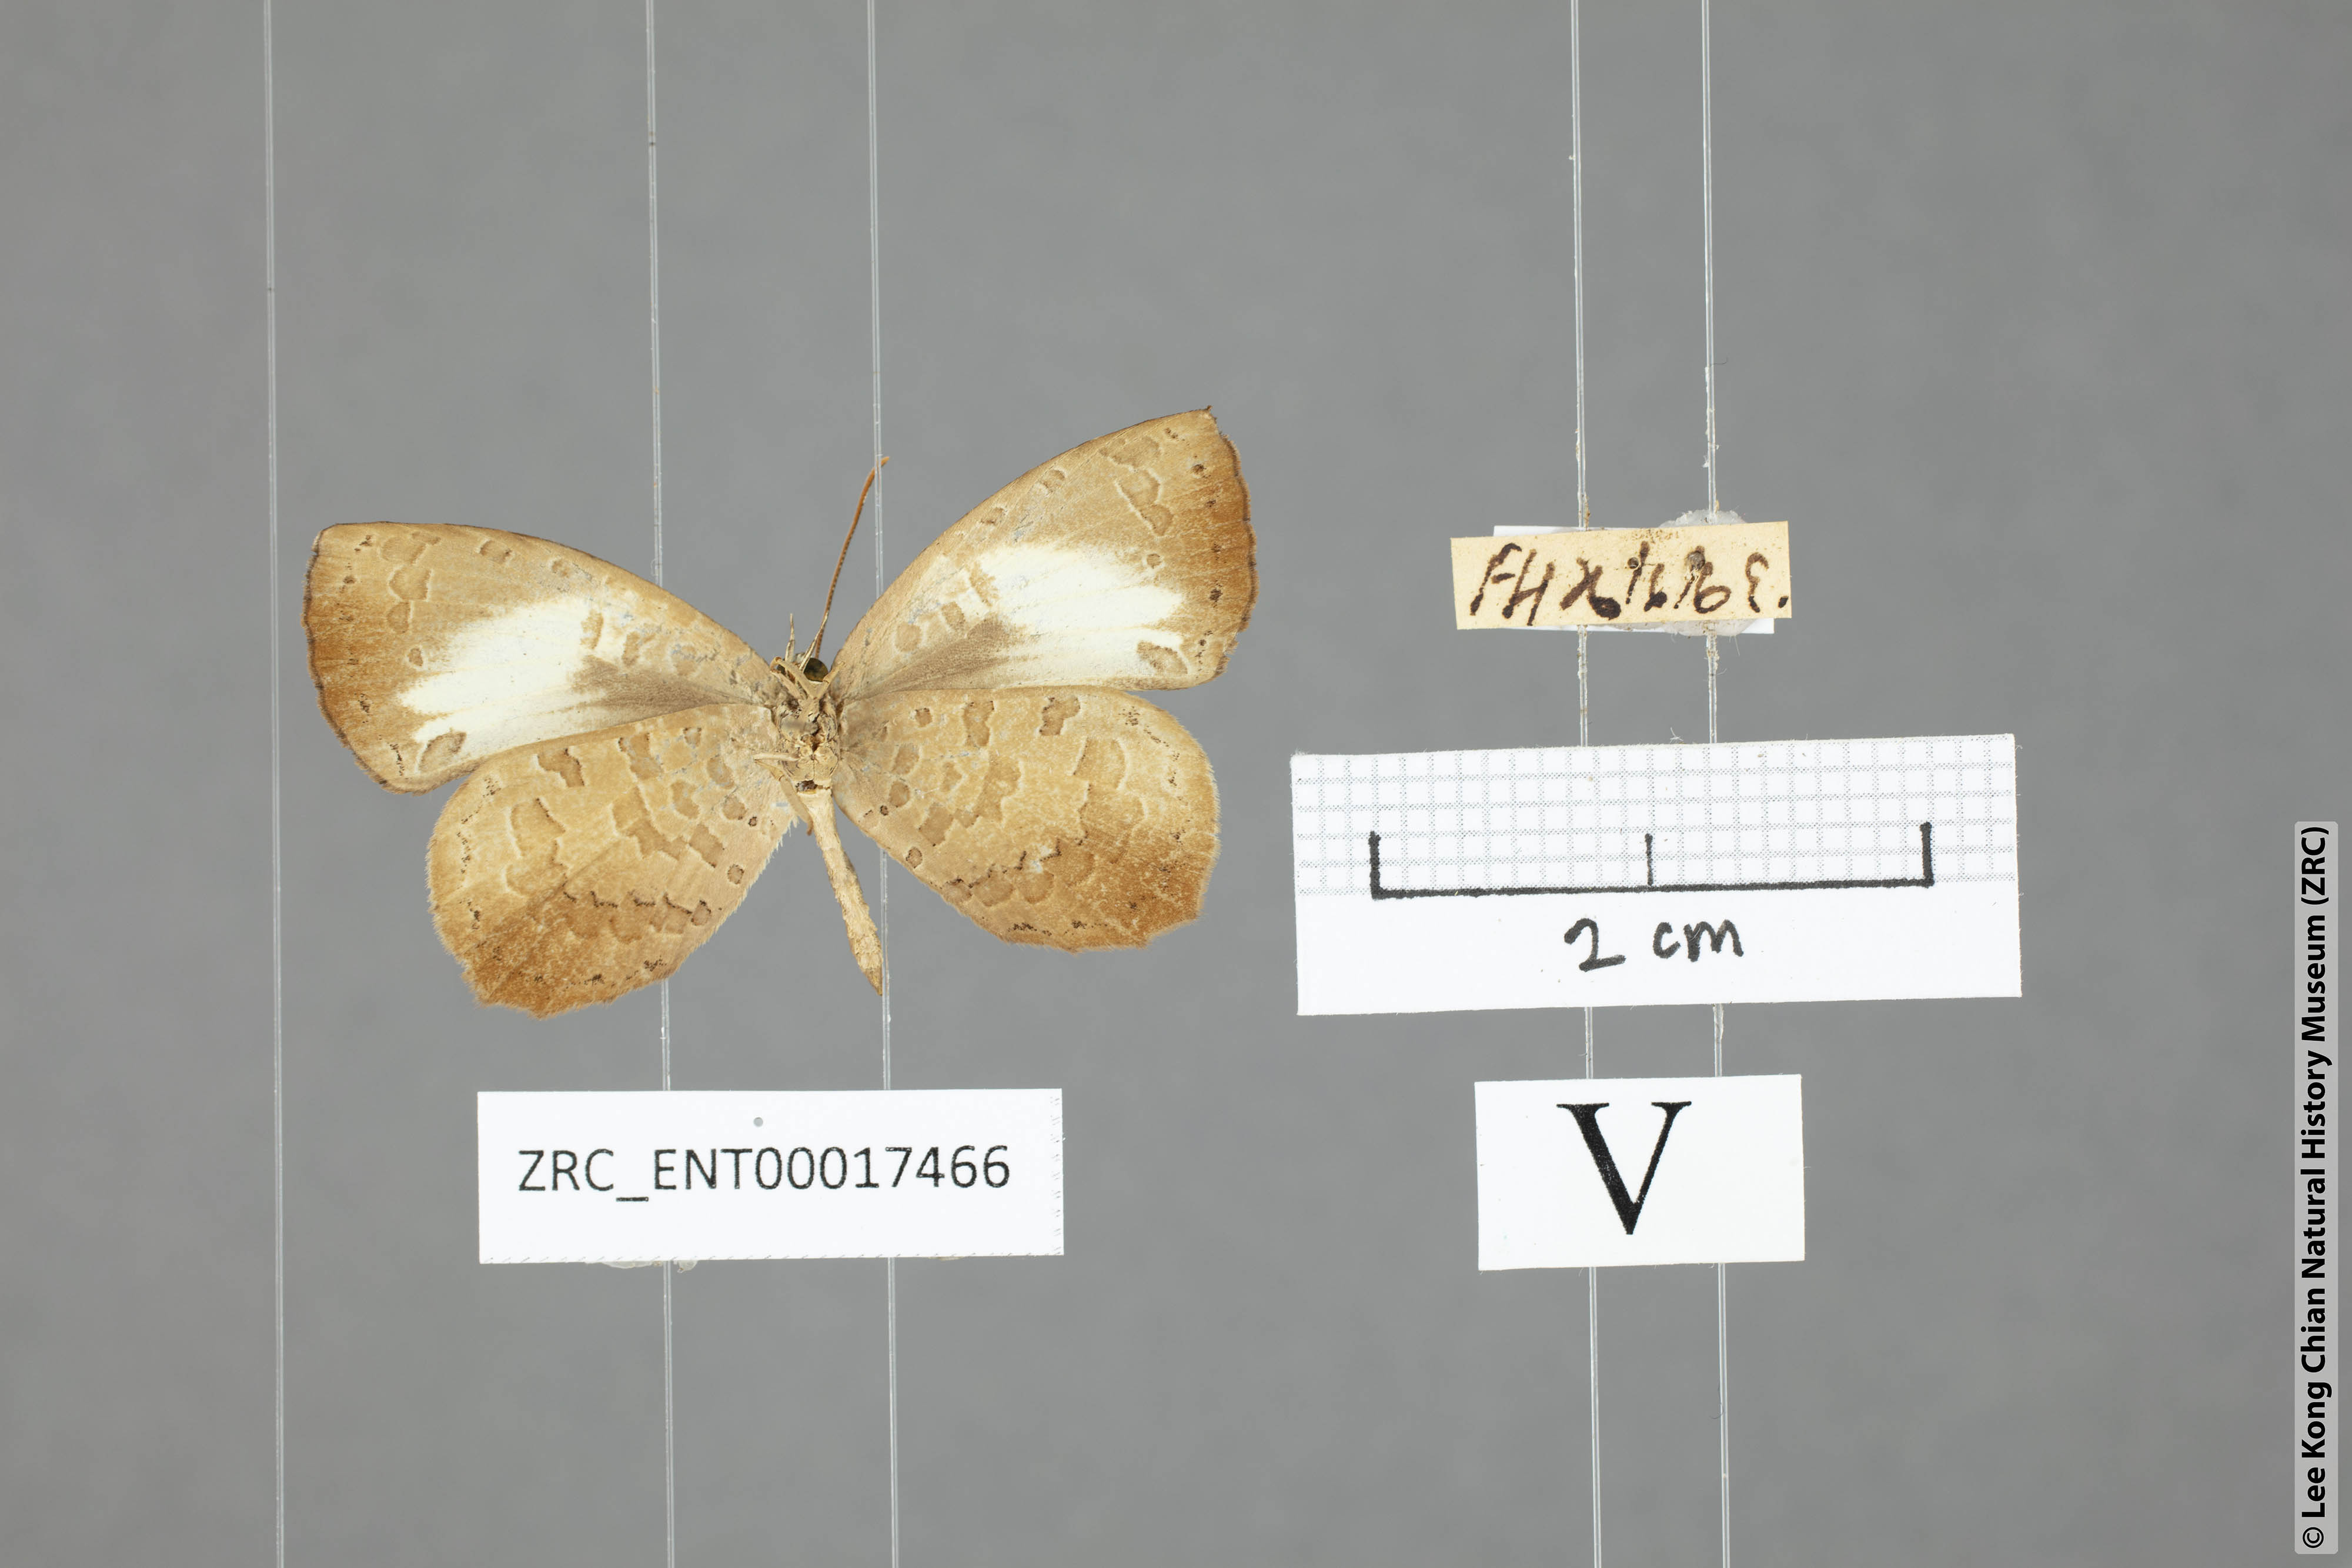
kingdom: Animalia
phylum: Arthropoda
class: Insecta
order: Lepidoptera
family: Lycaenidae
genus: Miletus
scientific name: Miletus nymphis
